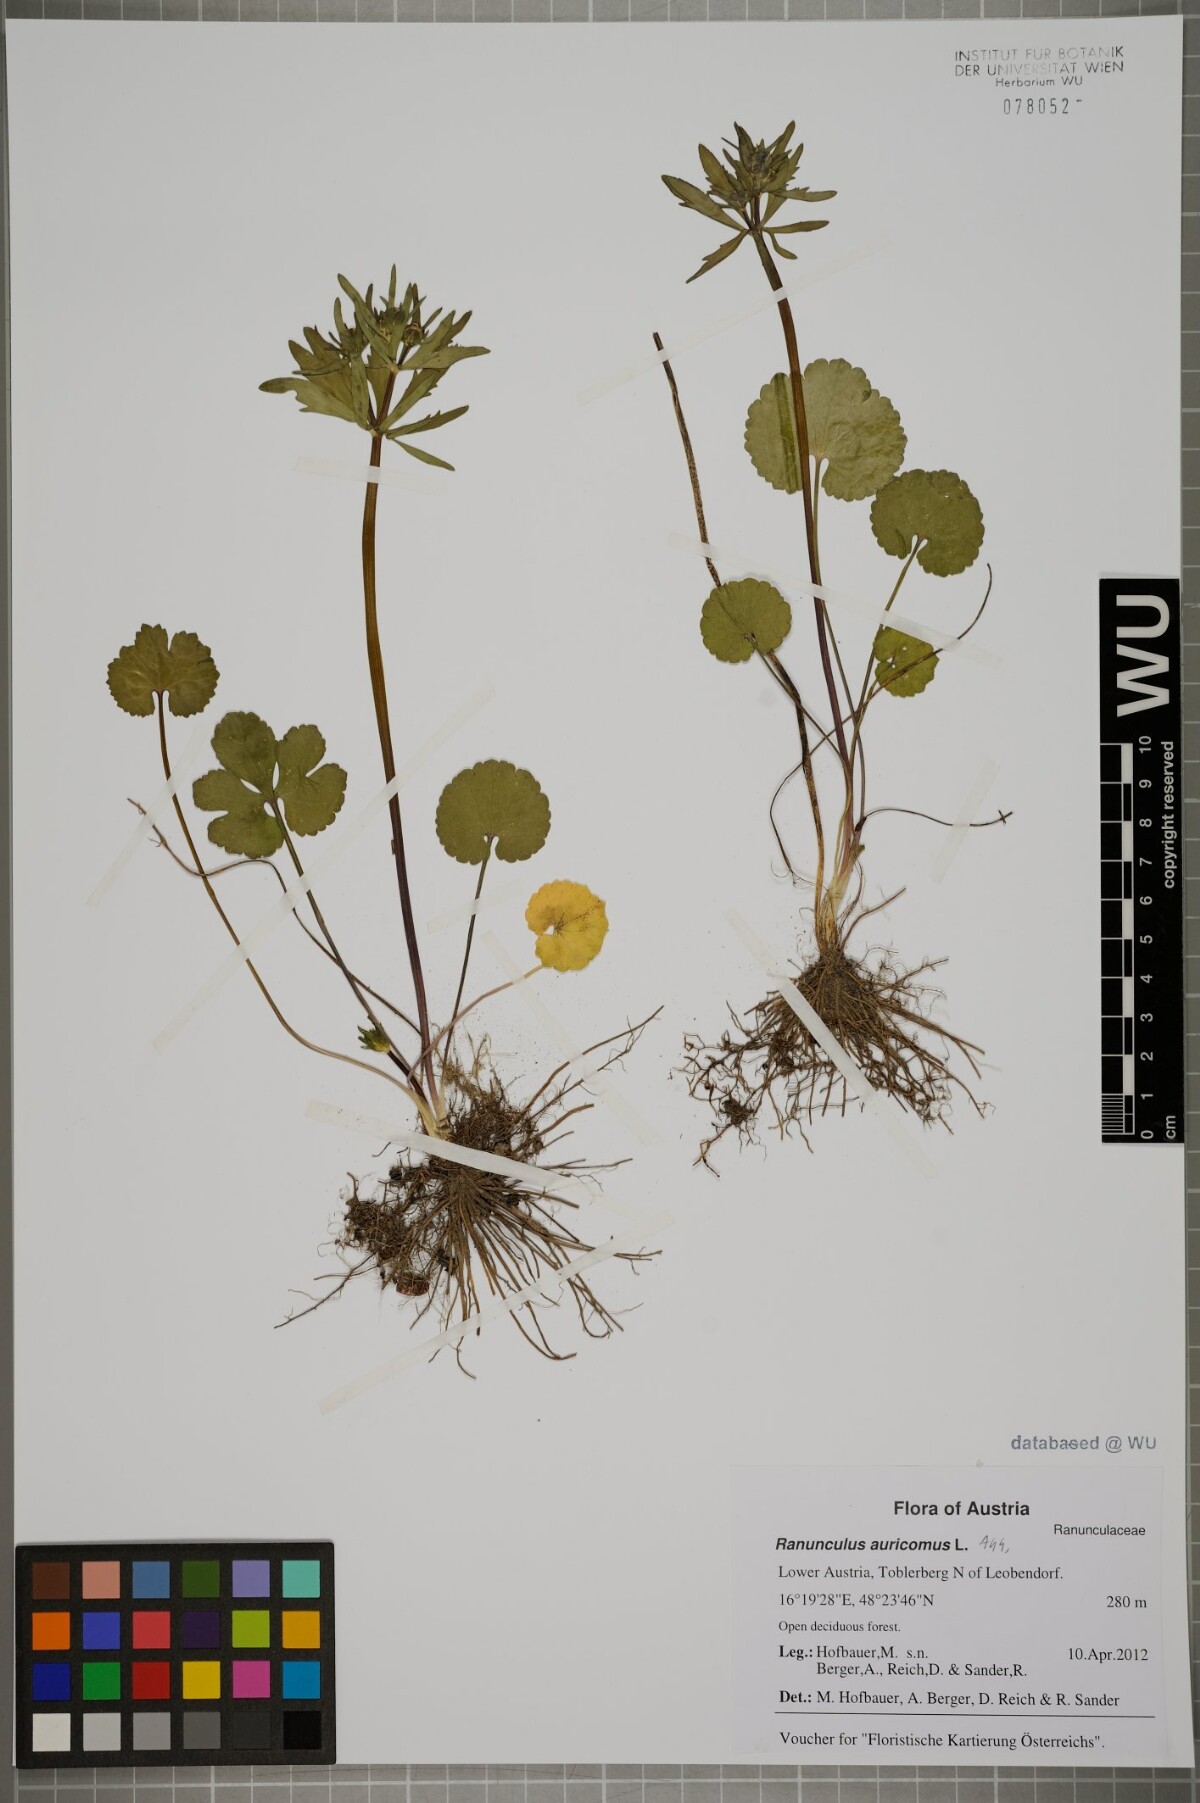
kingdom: Plantae
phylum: Tracheophyta
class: Magnoliopsida
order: Ranunculales
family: Ranunculaceae
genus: Ranunculus
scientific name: Ranunculus auricomus
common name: Goldilocks buttercup
